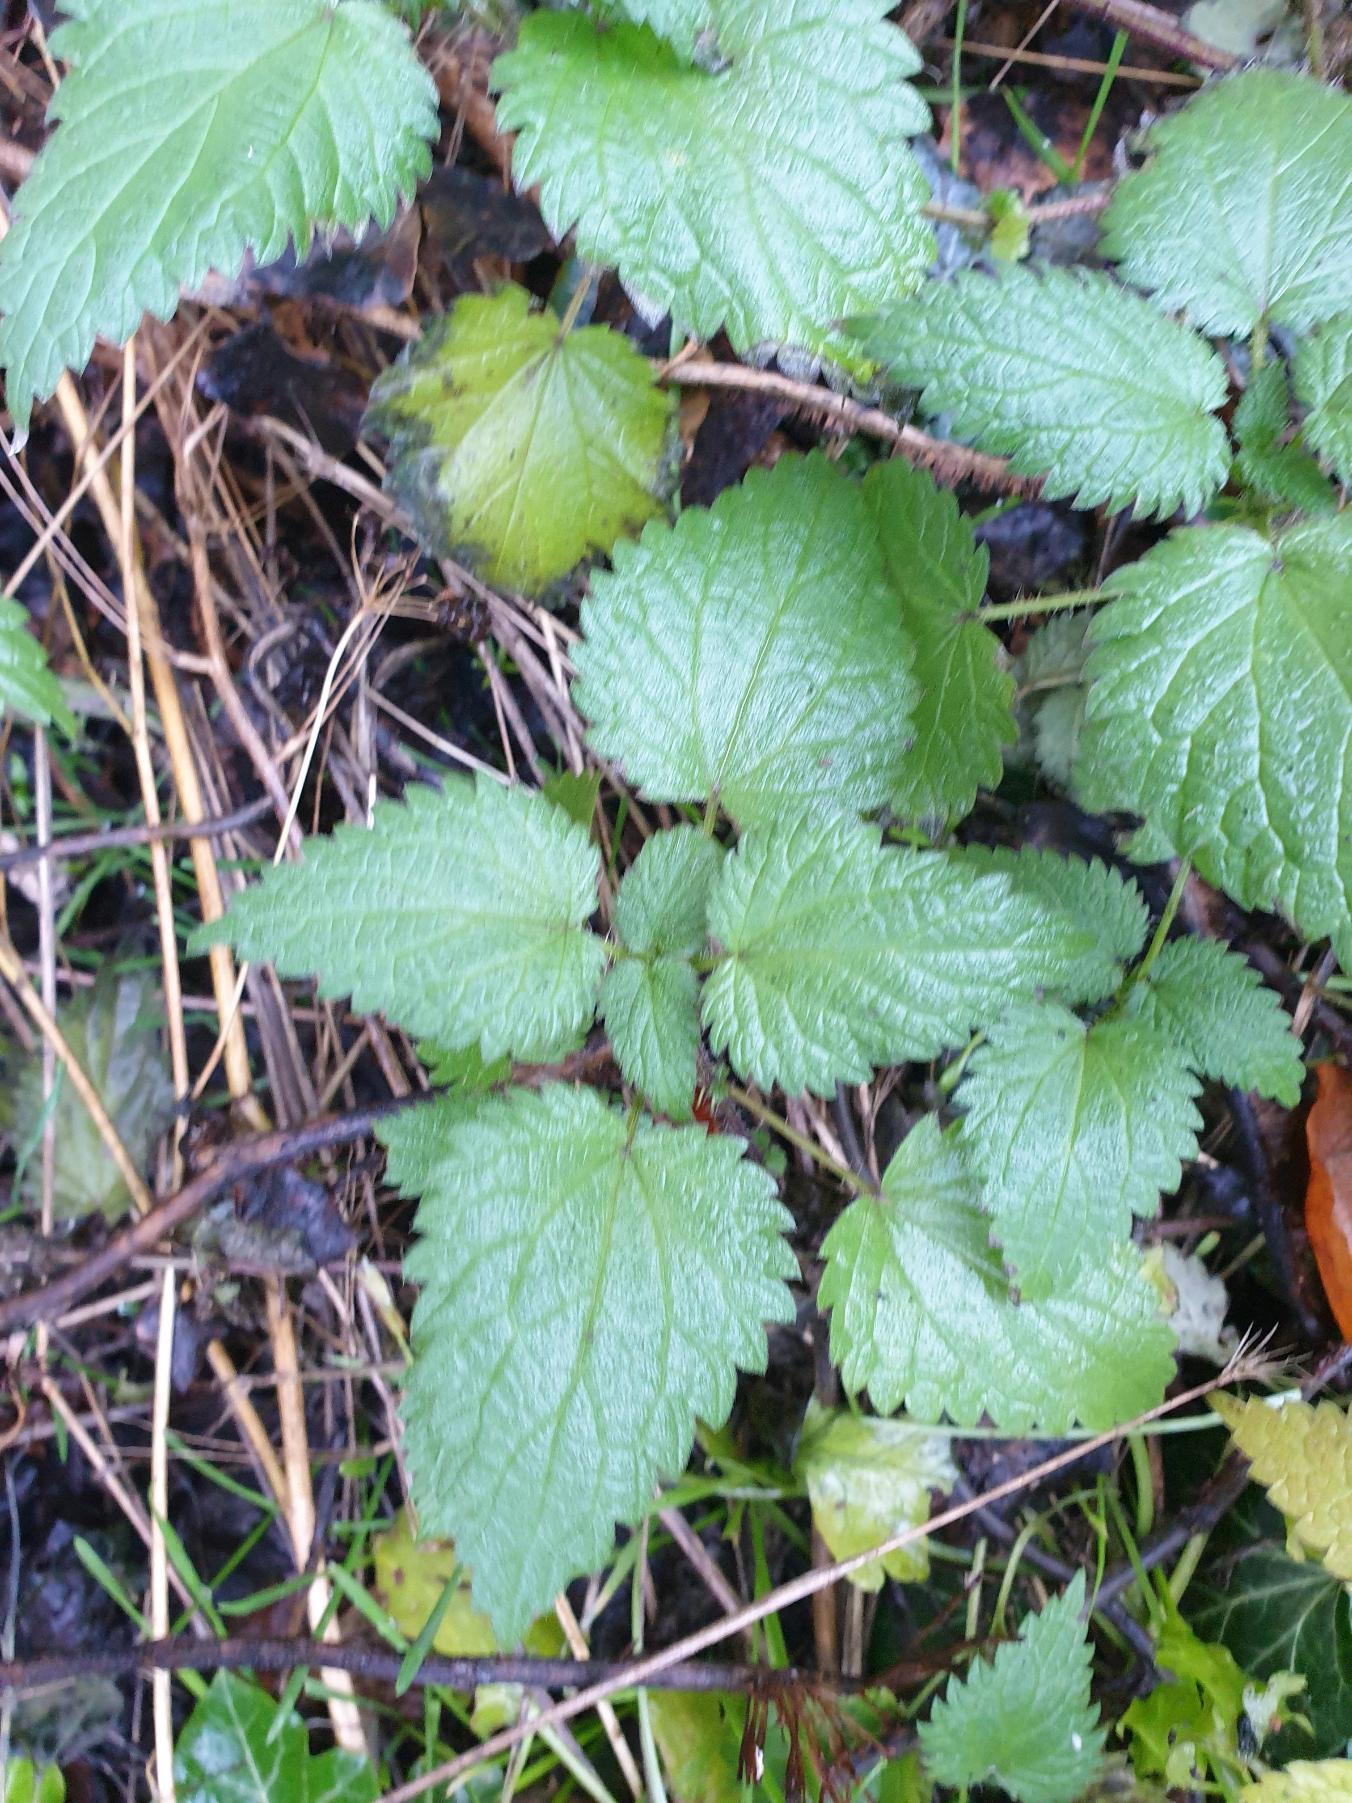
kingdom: Plantae
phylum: Tracheophyta
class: Magnoliopsida
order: Rosales
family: Urticaceae
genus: Urtica
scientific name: Urtica dioica
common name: Stor nælde
